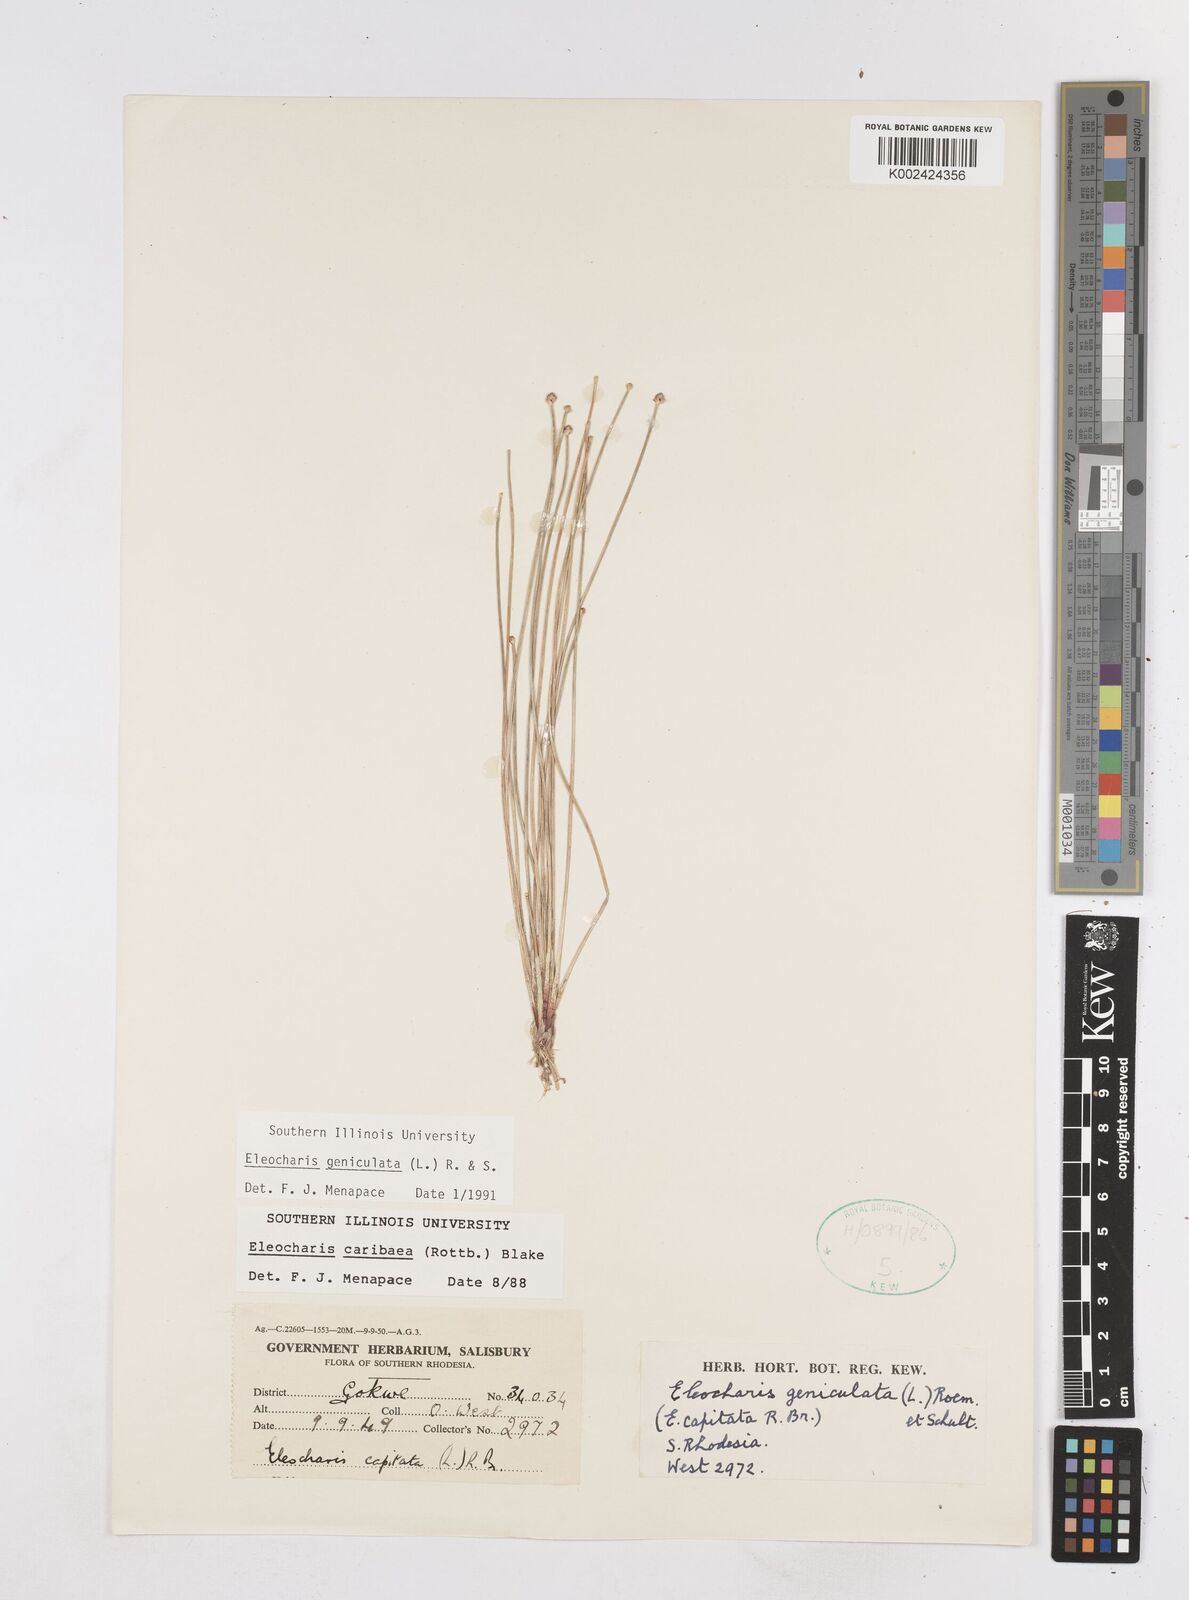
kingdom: Plantae
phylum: Tracheophyta
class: Liliopsida
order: Poales
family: Cyperaceae
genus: Eleocharis
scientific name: Eleocharis geniculata
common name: Canada spikesedge
